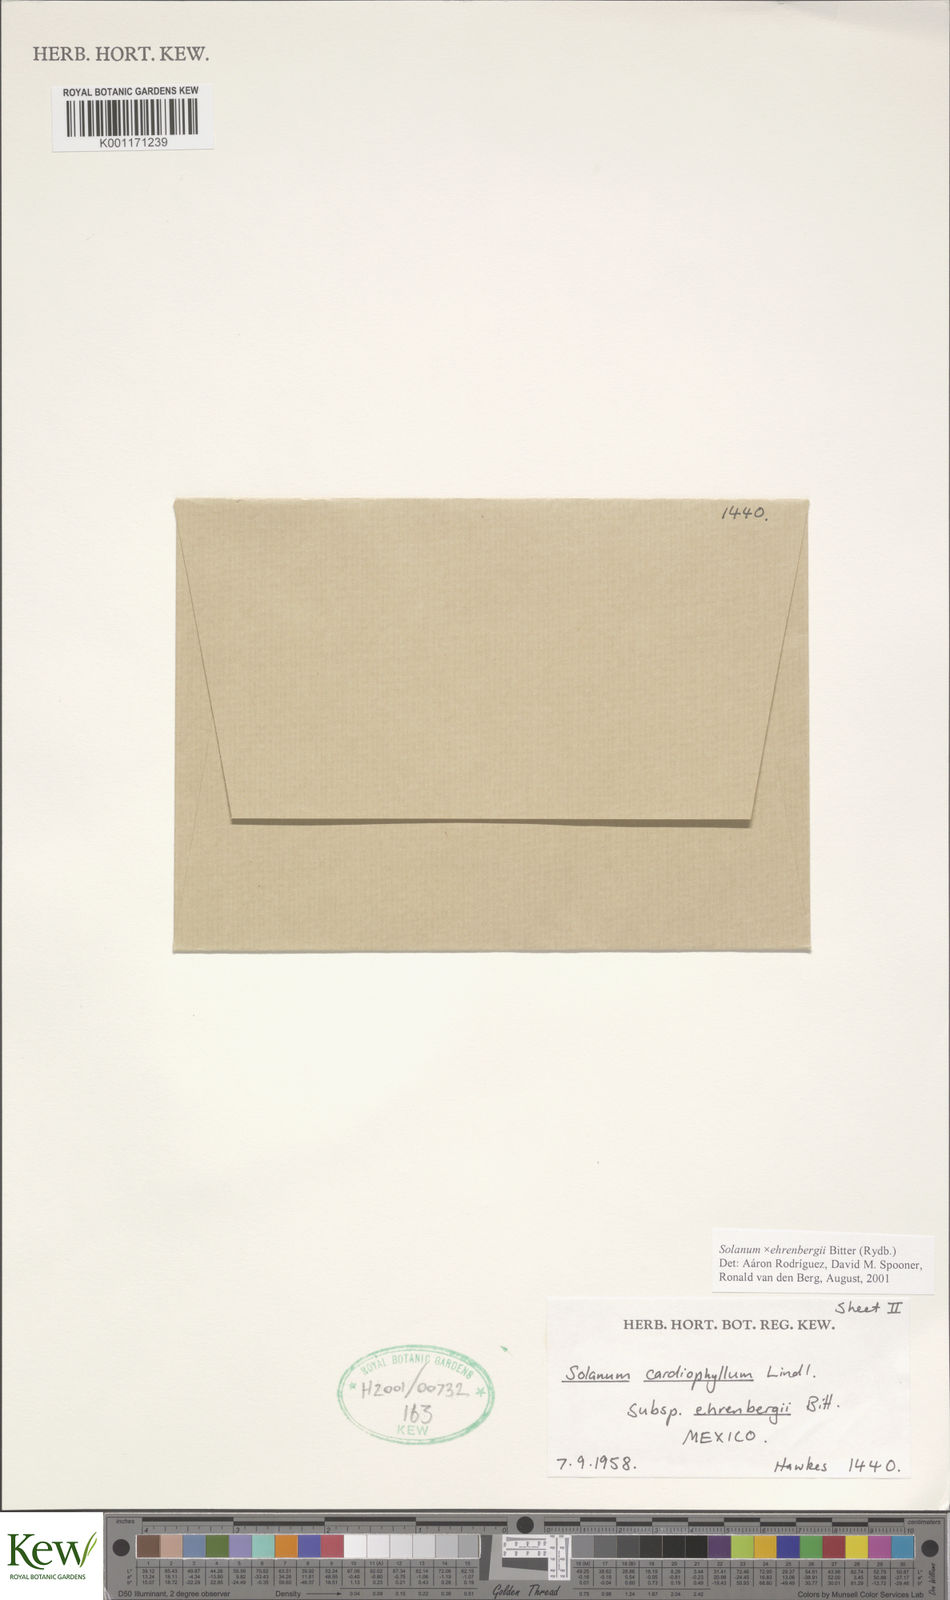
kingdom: Plantae
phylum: Tracheophyta
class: Magnoliopsida
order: Solanales
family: Solanaceae
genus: Solanum
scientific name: Solanum edinense
